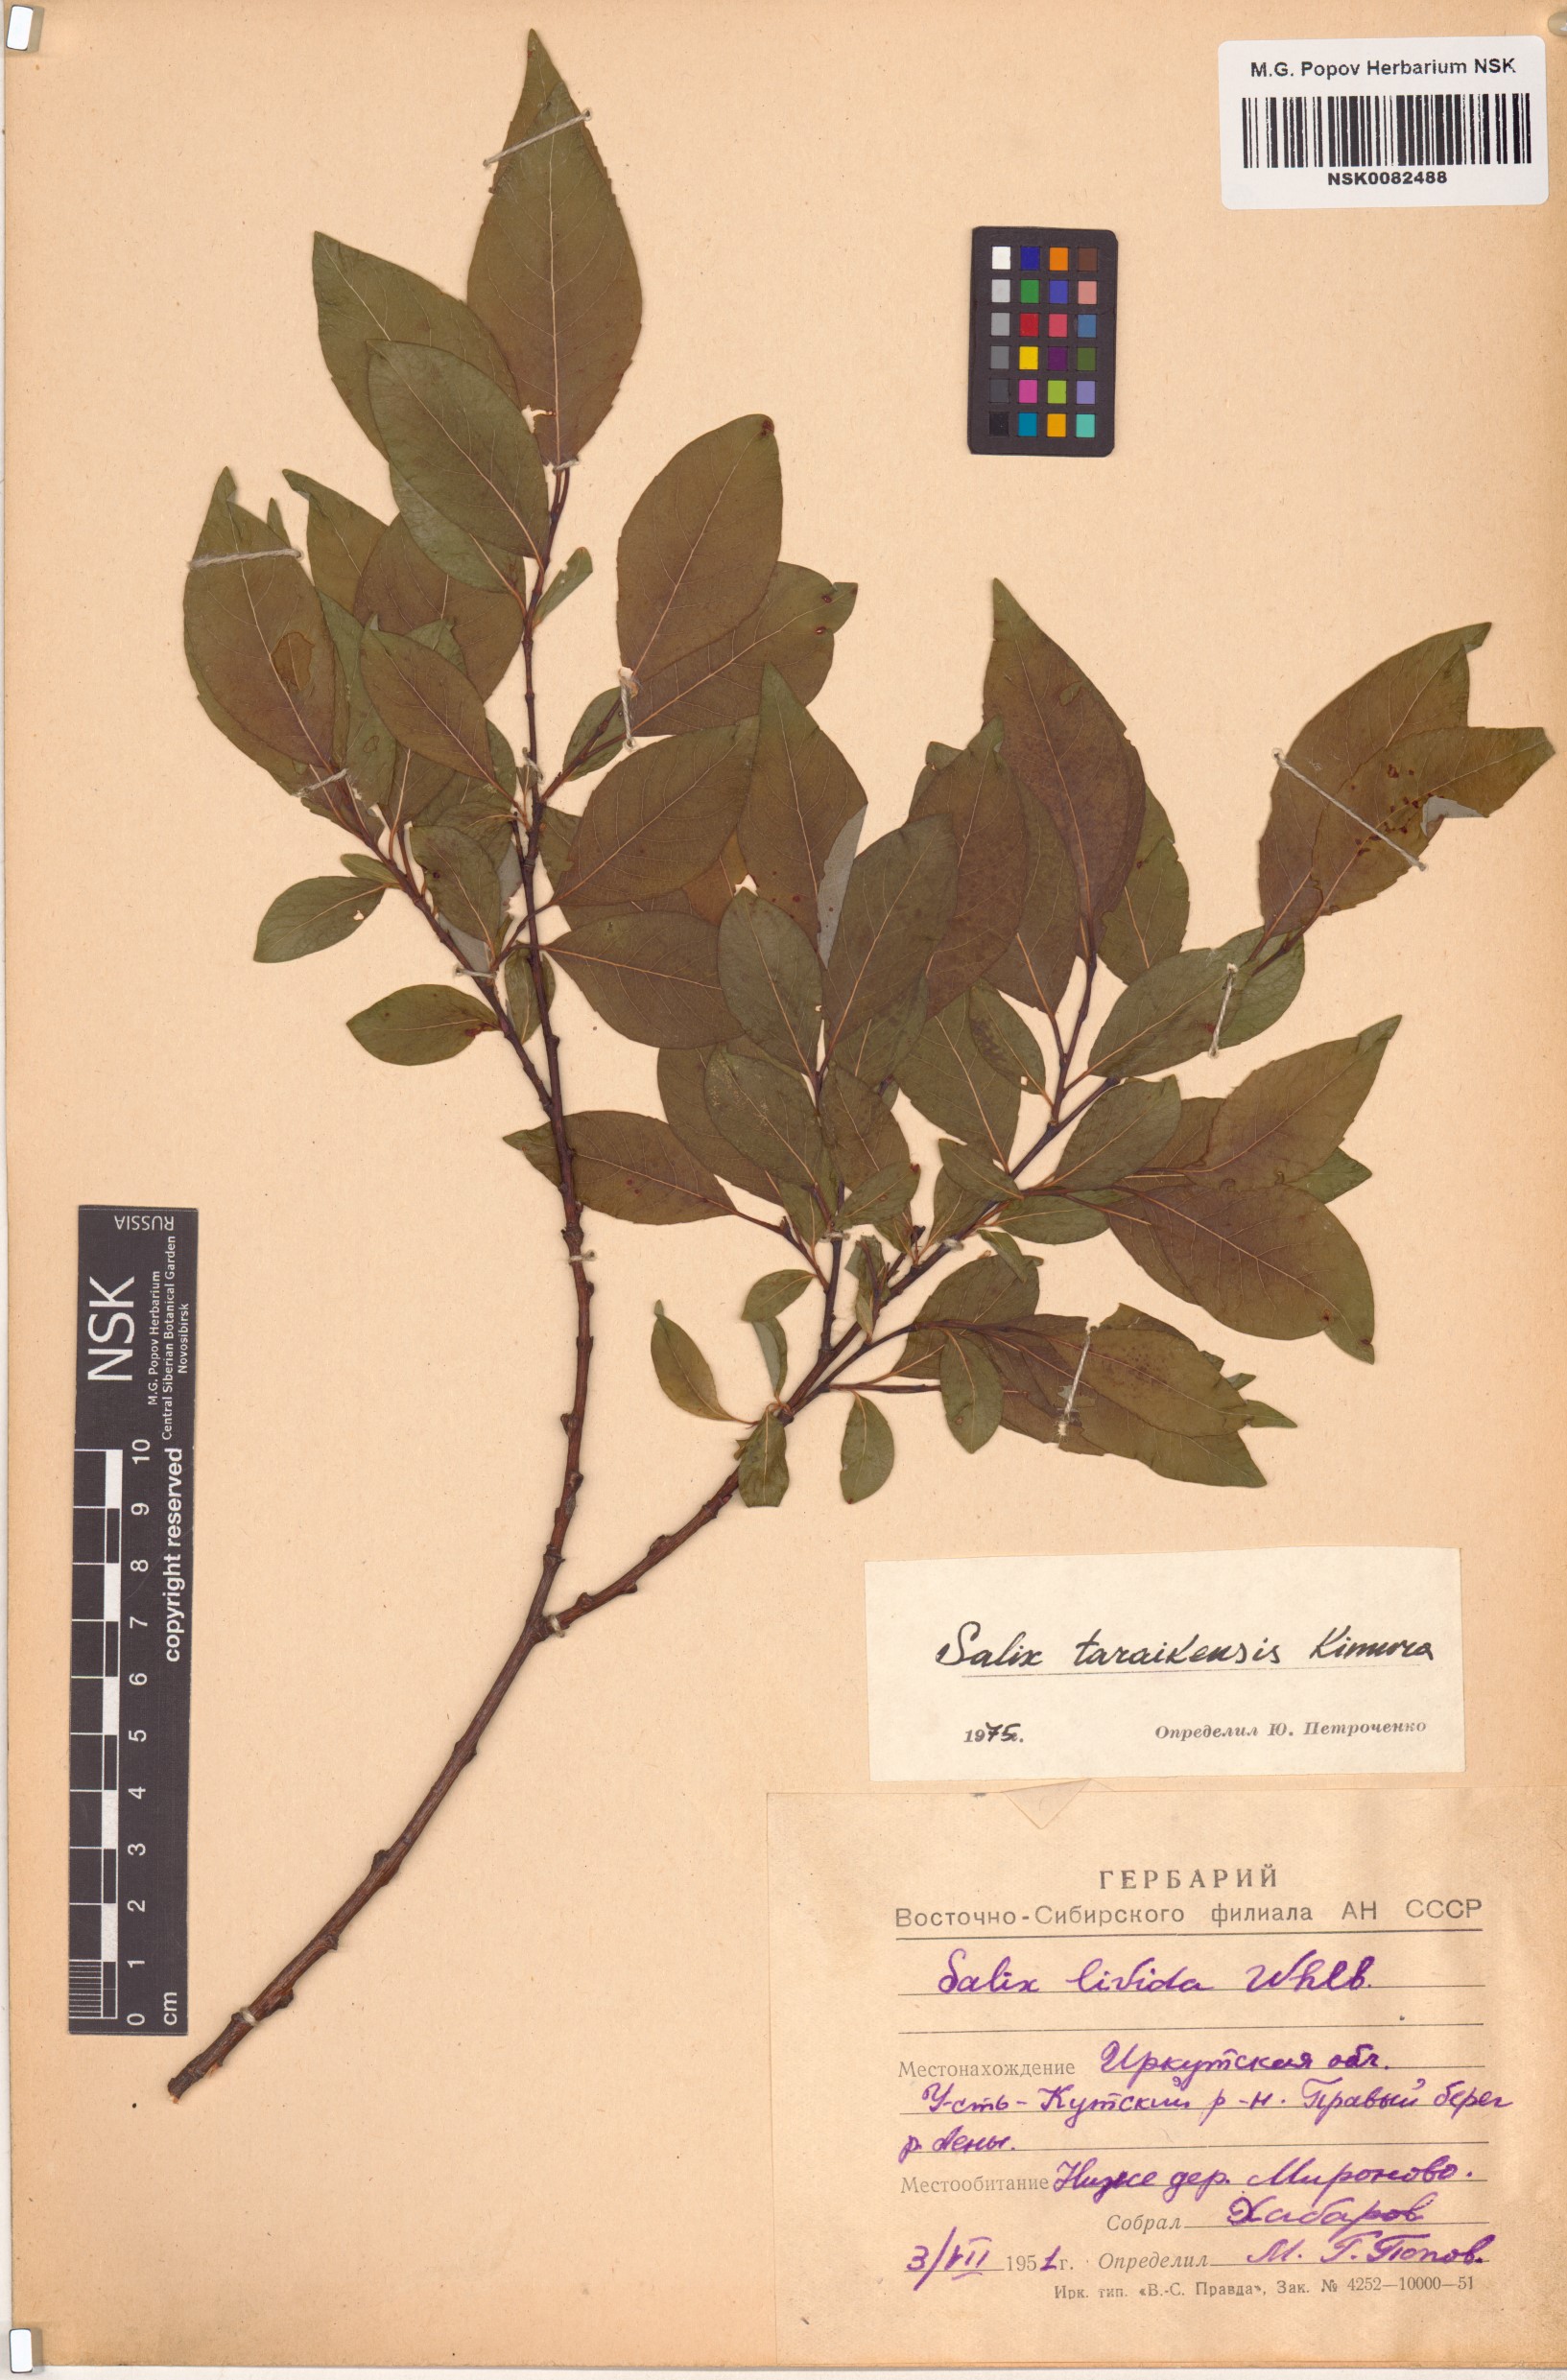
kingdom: Plantae
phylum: Tracheophyta
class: Magnoliopsida
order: Malpighiales
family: Salicaceae
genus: Salix
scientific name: Salix taraikensis
